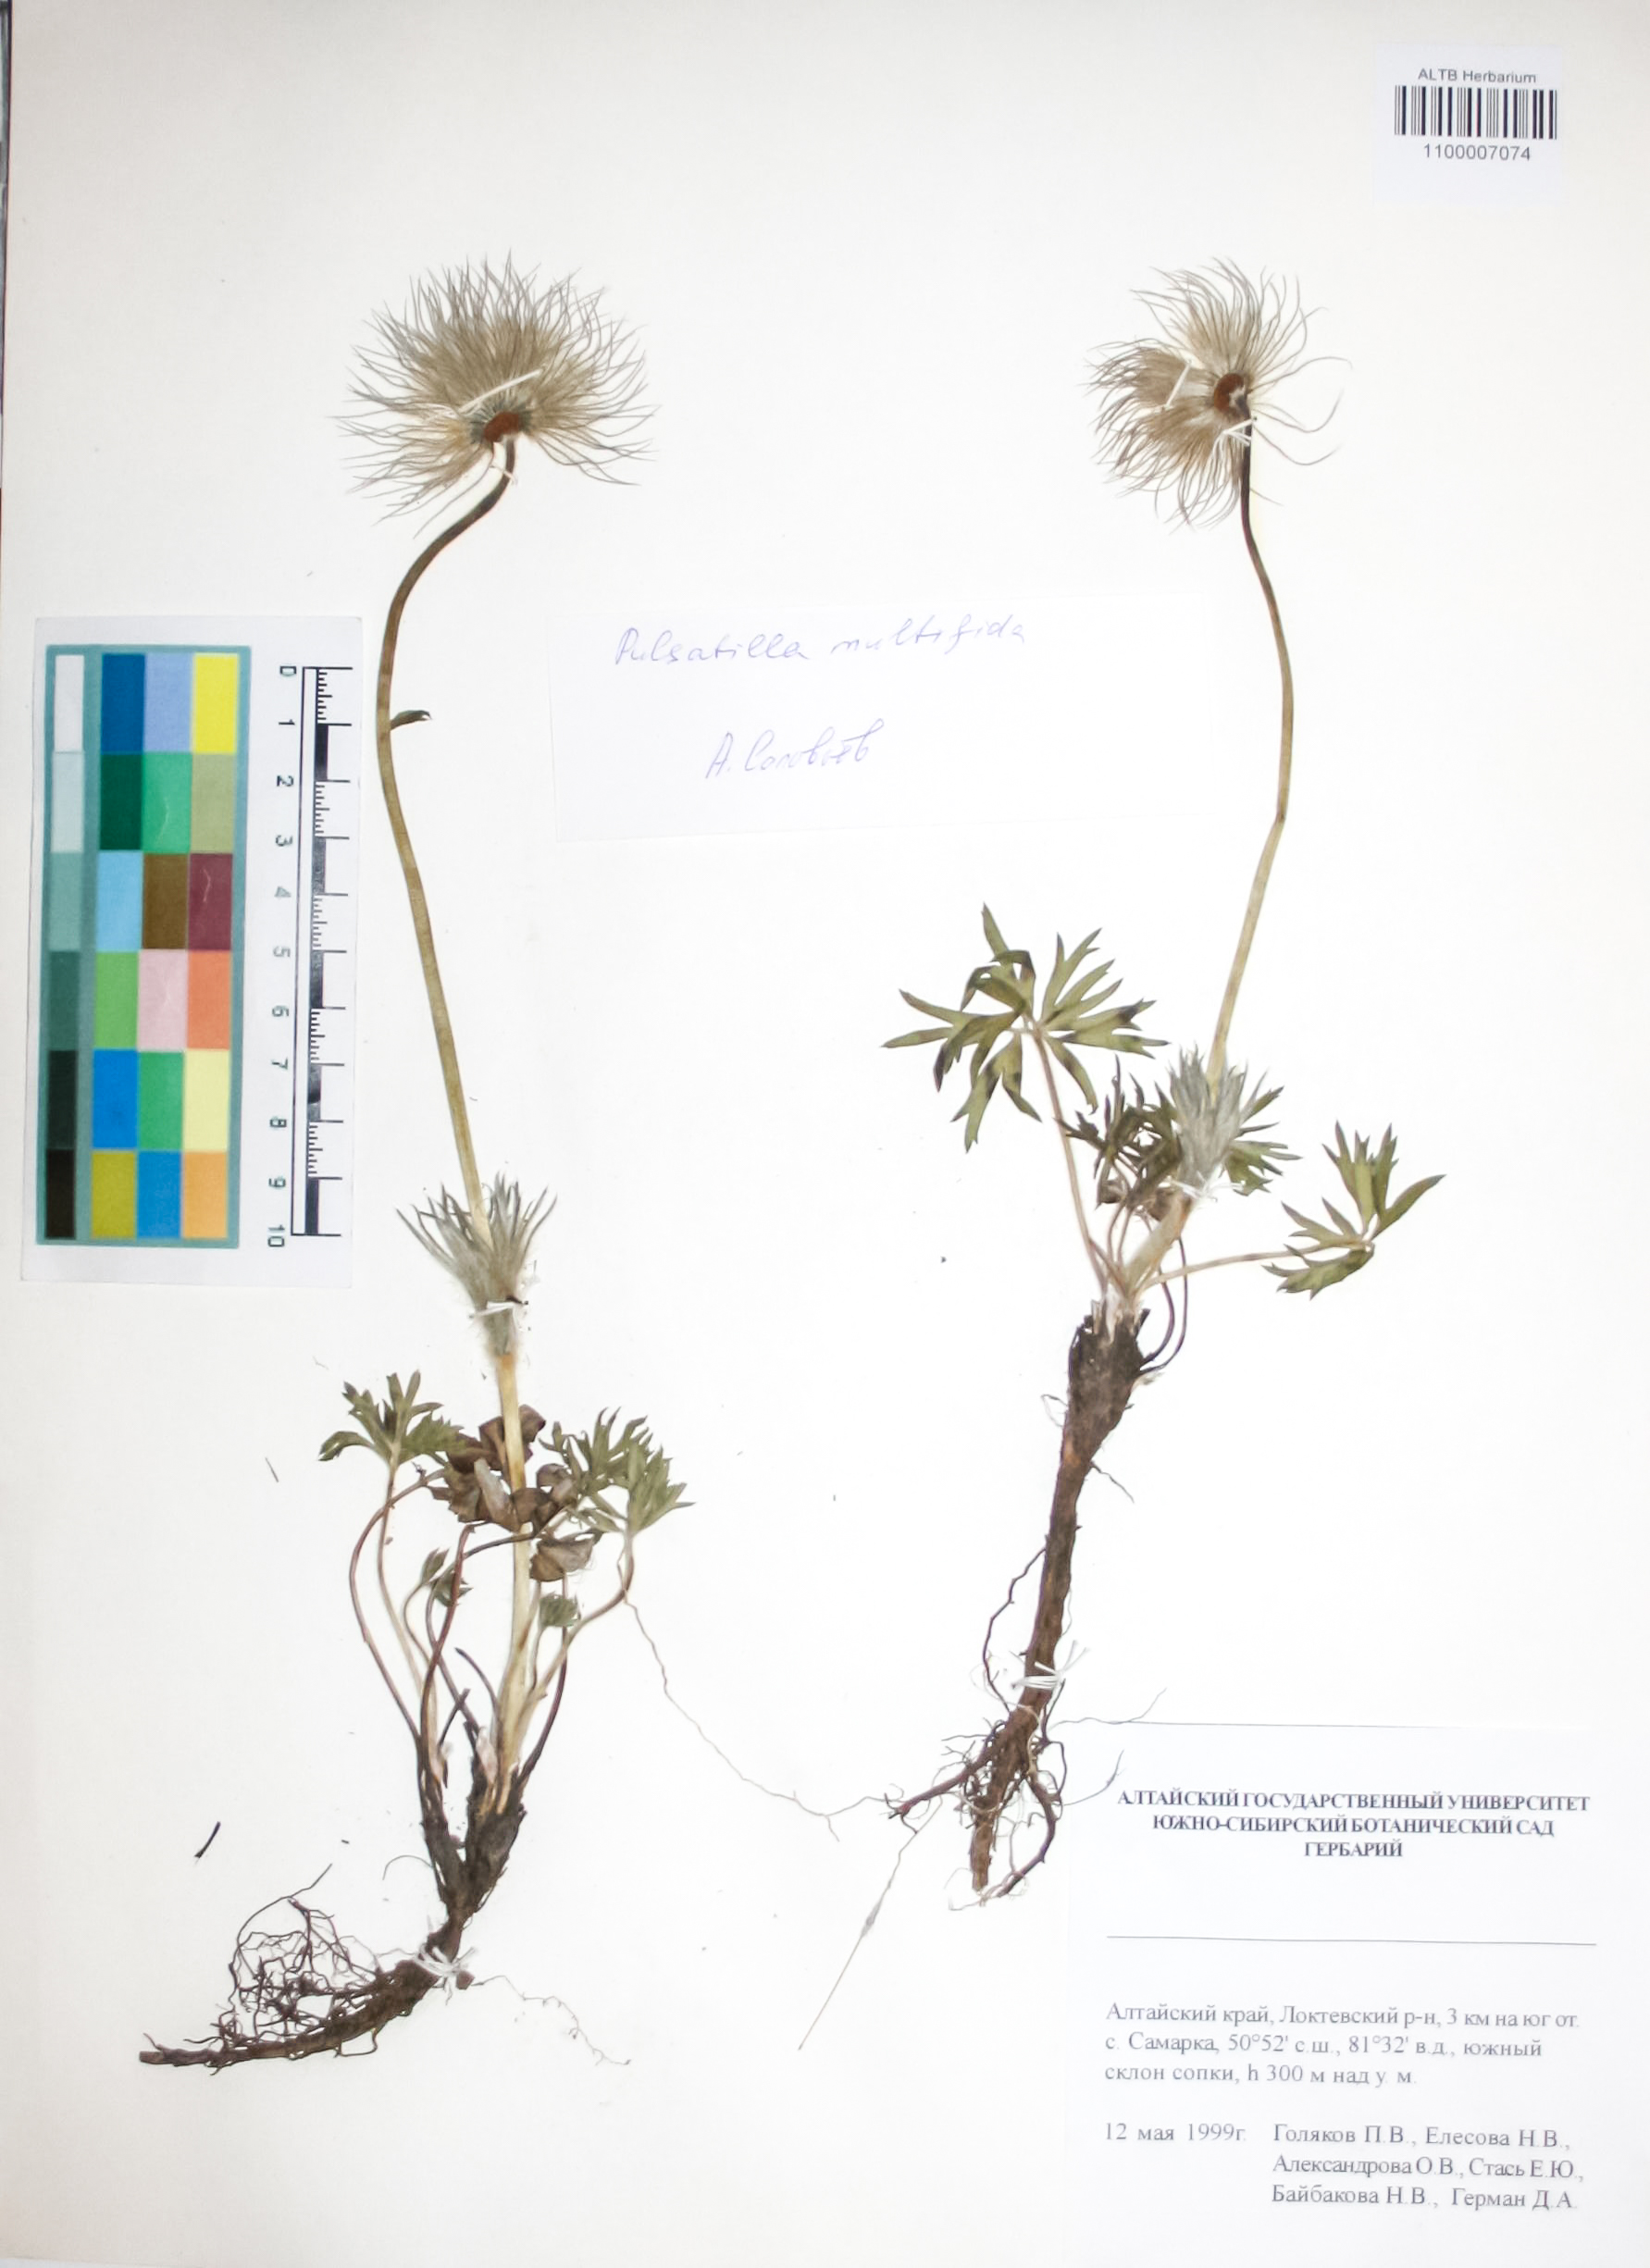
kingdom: Plantae
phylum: Tracheophyta
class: Magnoliopsida
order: Ranunculales
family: Ranunculaceae
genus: Pulsatilla
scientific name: Pulsatilla patens
